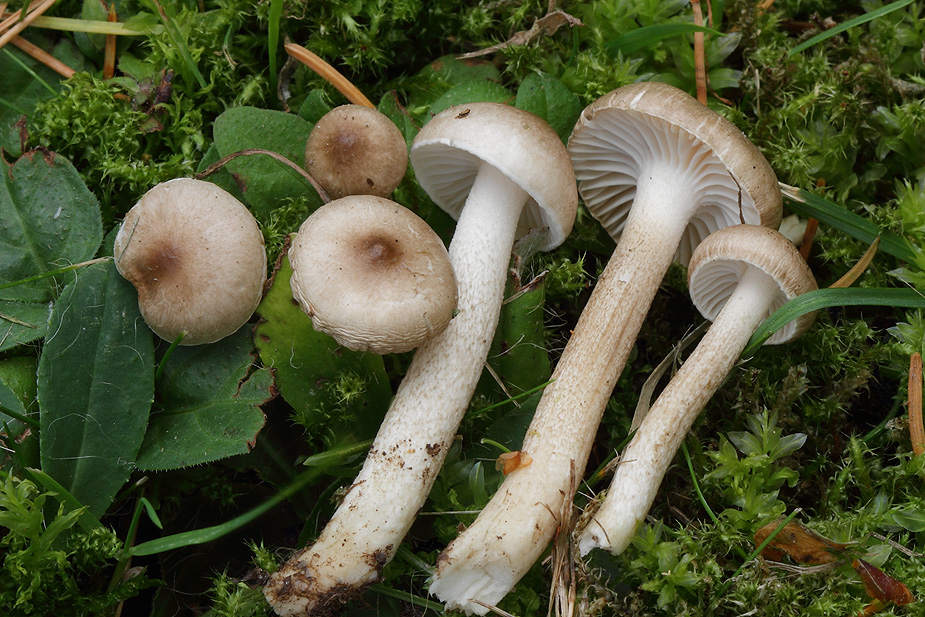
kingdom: Fungi
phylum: Basidiomycota
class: Agaricomycetes
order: Agaricales
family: Hygrophoraceae
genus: Hygrophorus
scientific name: Hygrophorus suaveolens
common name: parfumeret sneglehat
